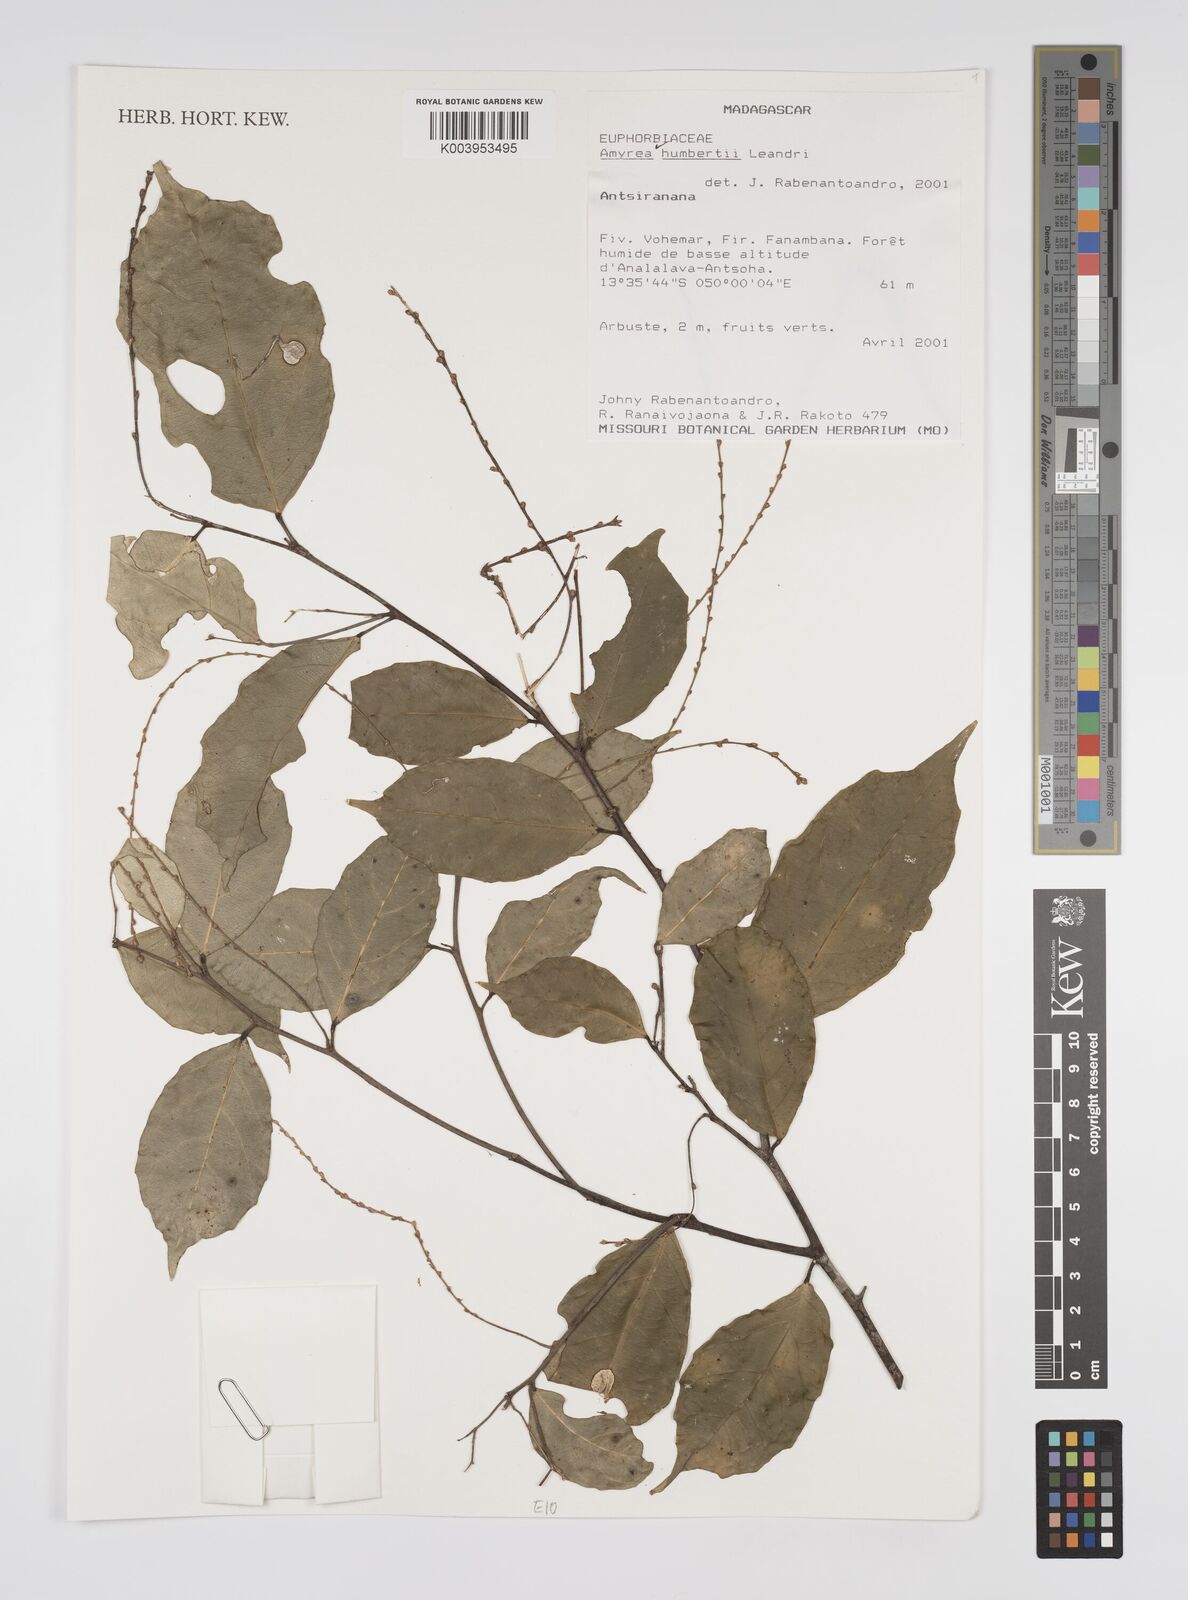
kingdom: Plantae
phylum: Tracheophyta
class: Magnoliopsida
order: Malpighiales
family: Euphorbiaceae
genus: Amyrea
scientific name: Amyrea humbertii
